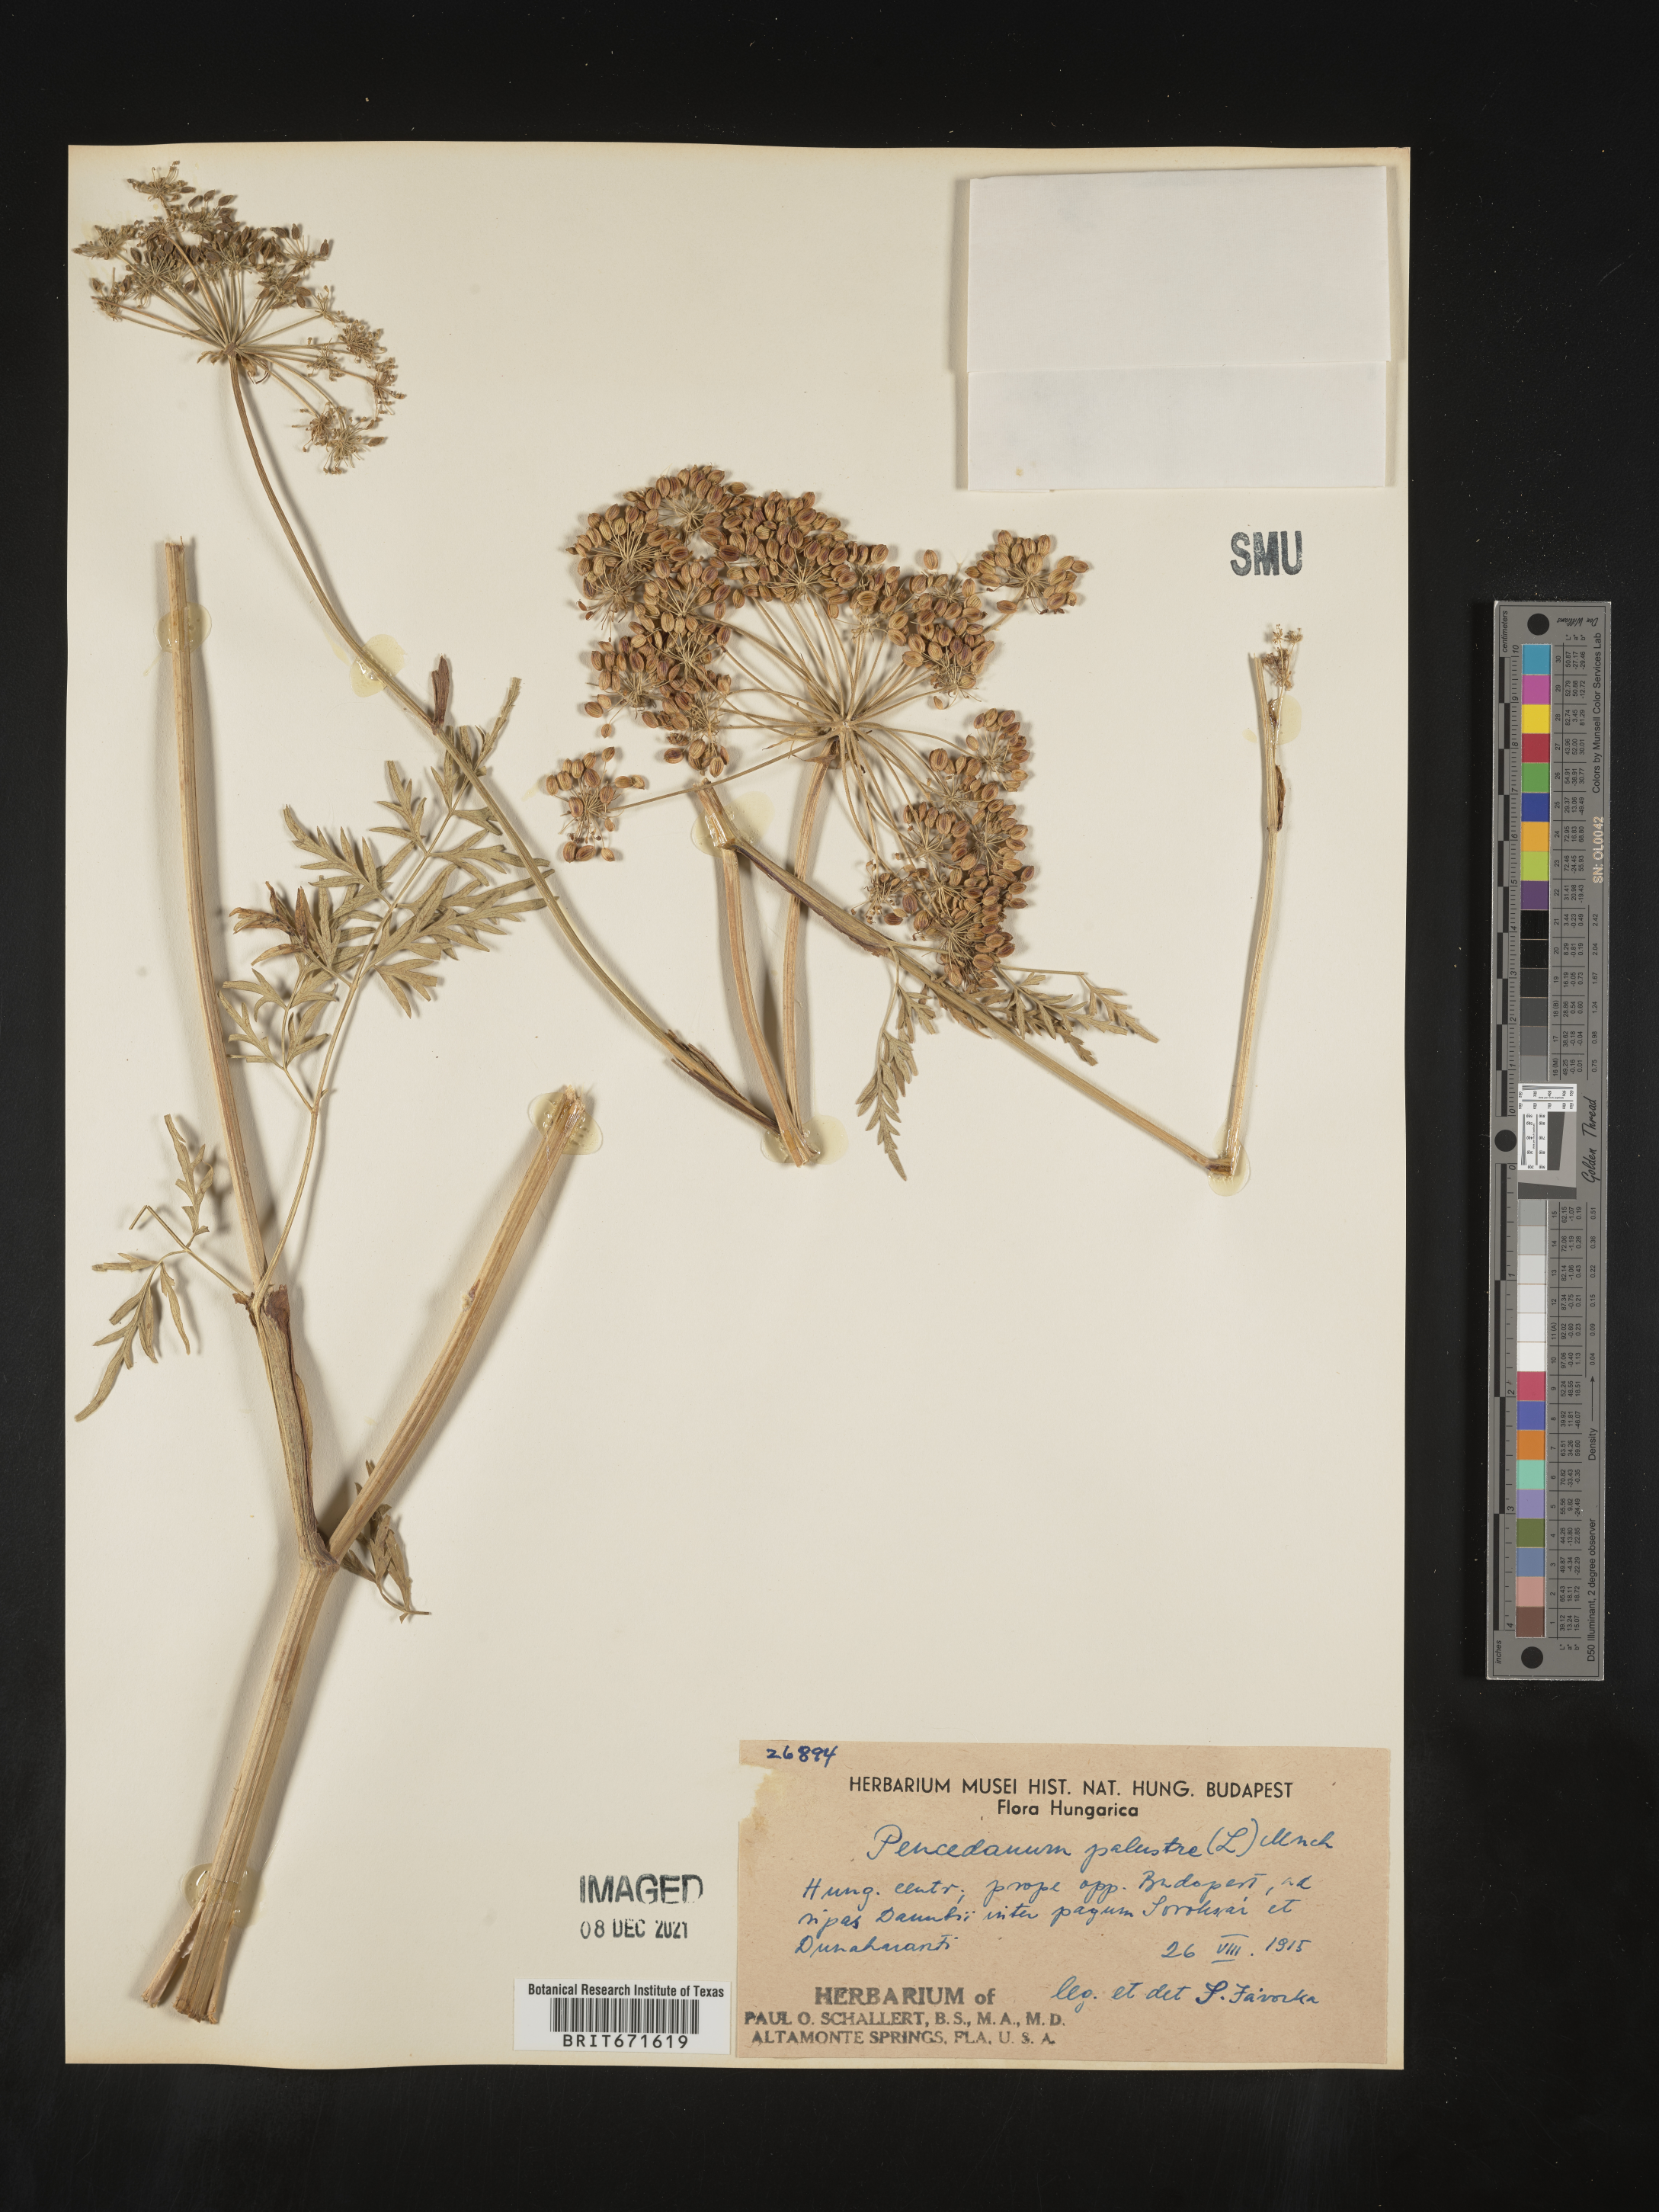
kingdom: Plantae
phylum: Tracheophyta
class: Magnoliopsida
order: Apiales
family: Apiaceae
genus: Peucedanum
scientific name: Peucedanum
